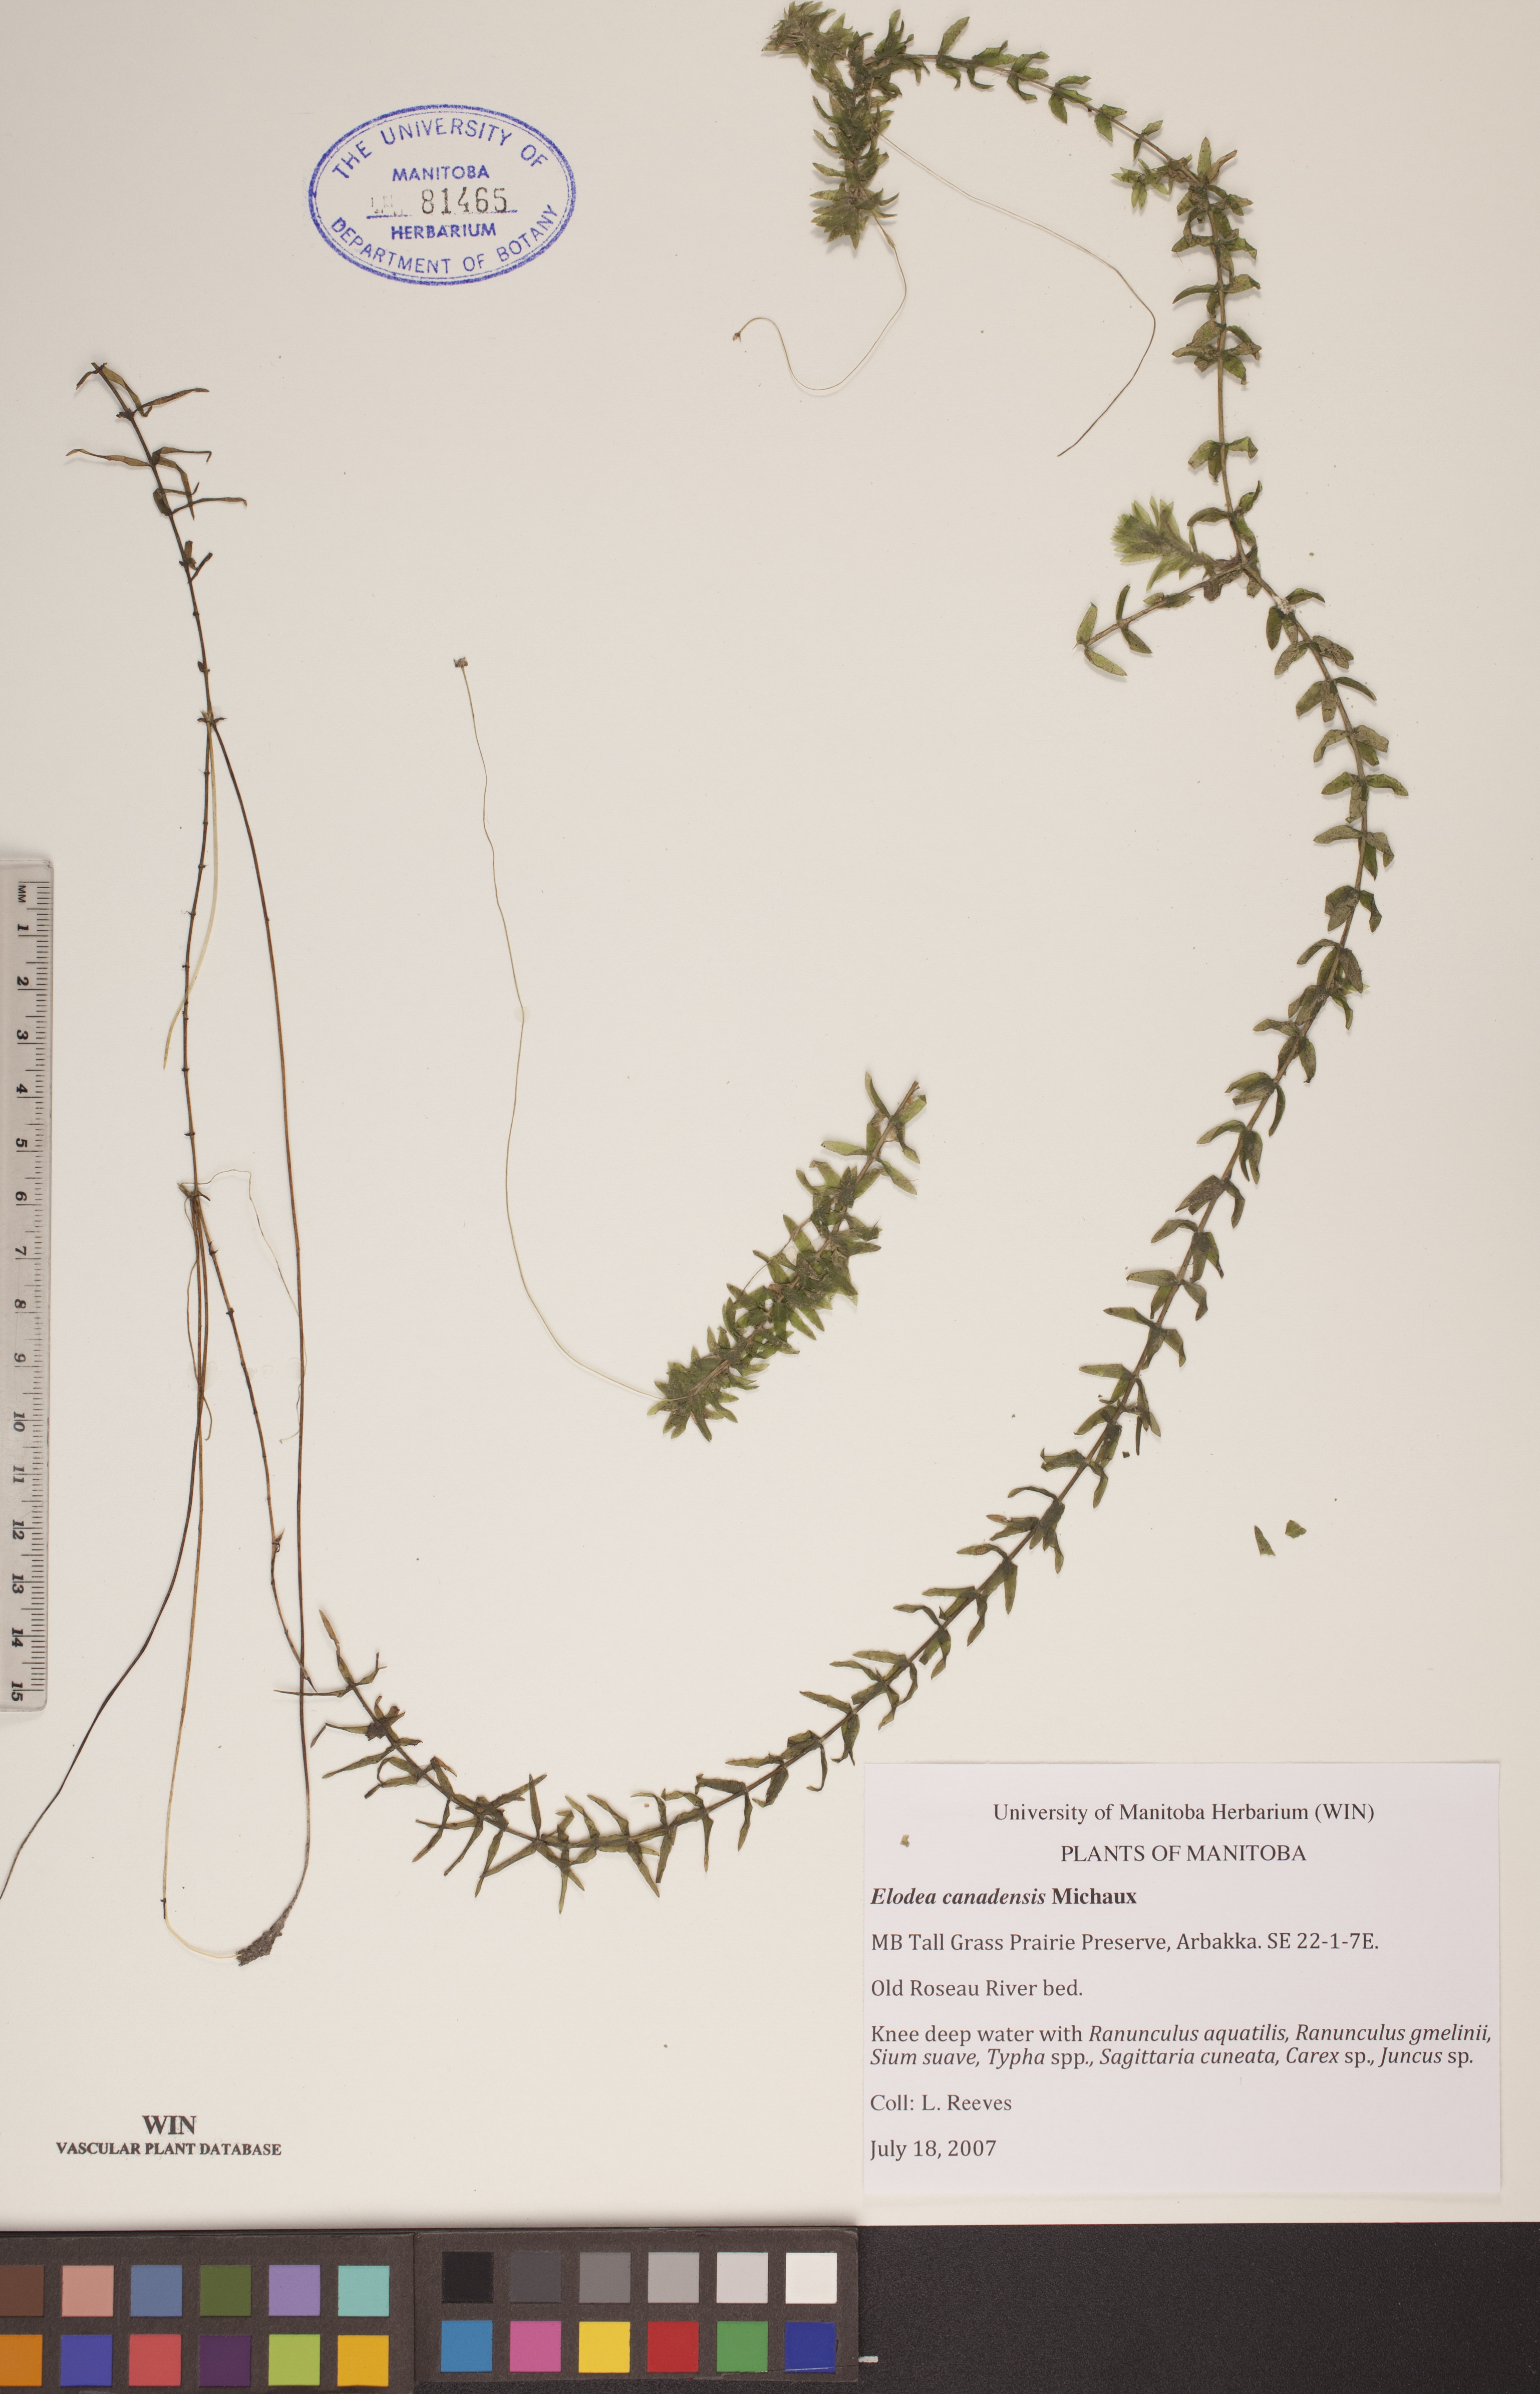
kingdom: Plantae
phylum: Tracheophyta
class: Liliopsida
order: Alismatales
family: Hydrocharitaceae
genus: Elodea
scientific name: Elodea canadensis
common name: Canadian waterweed
